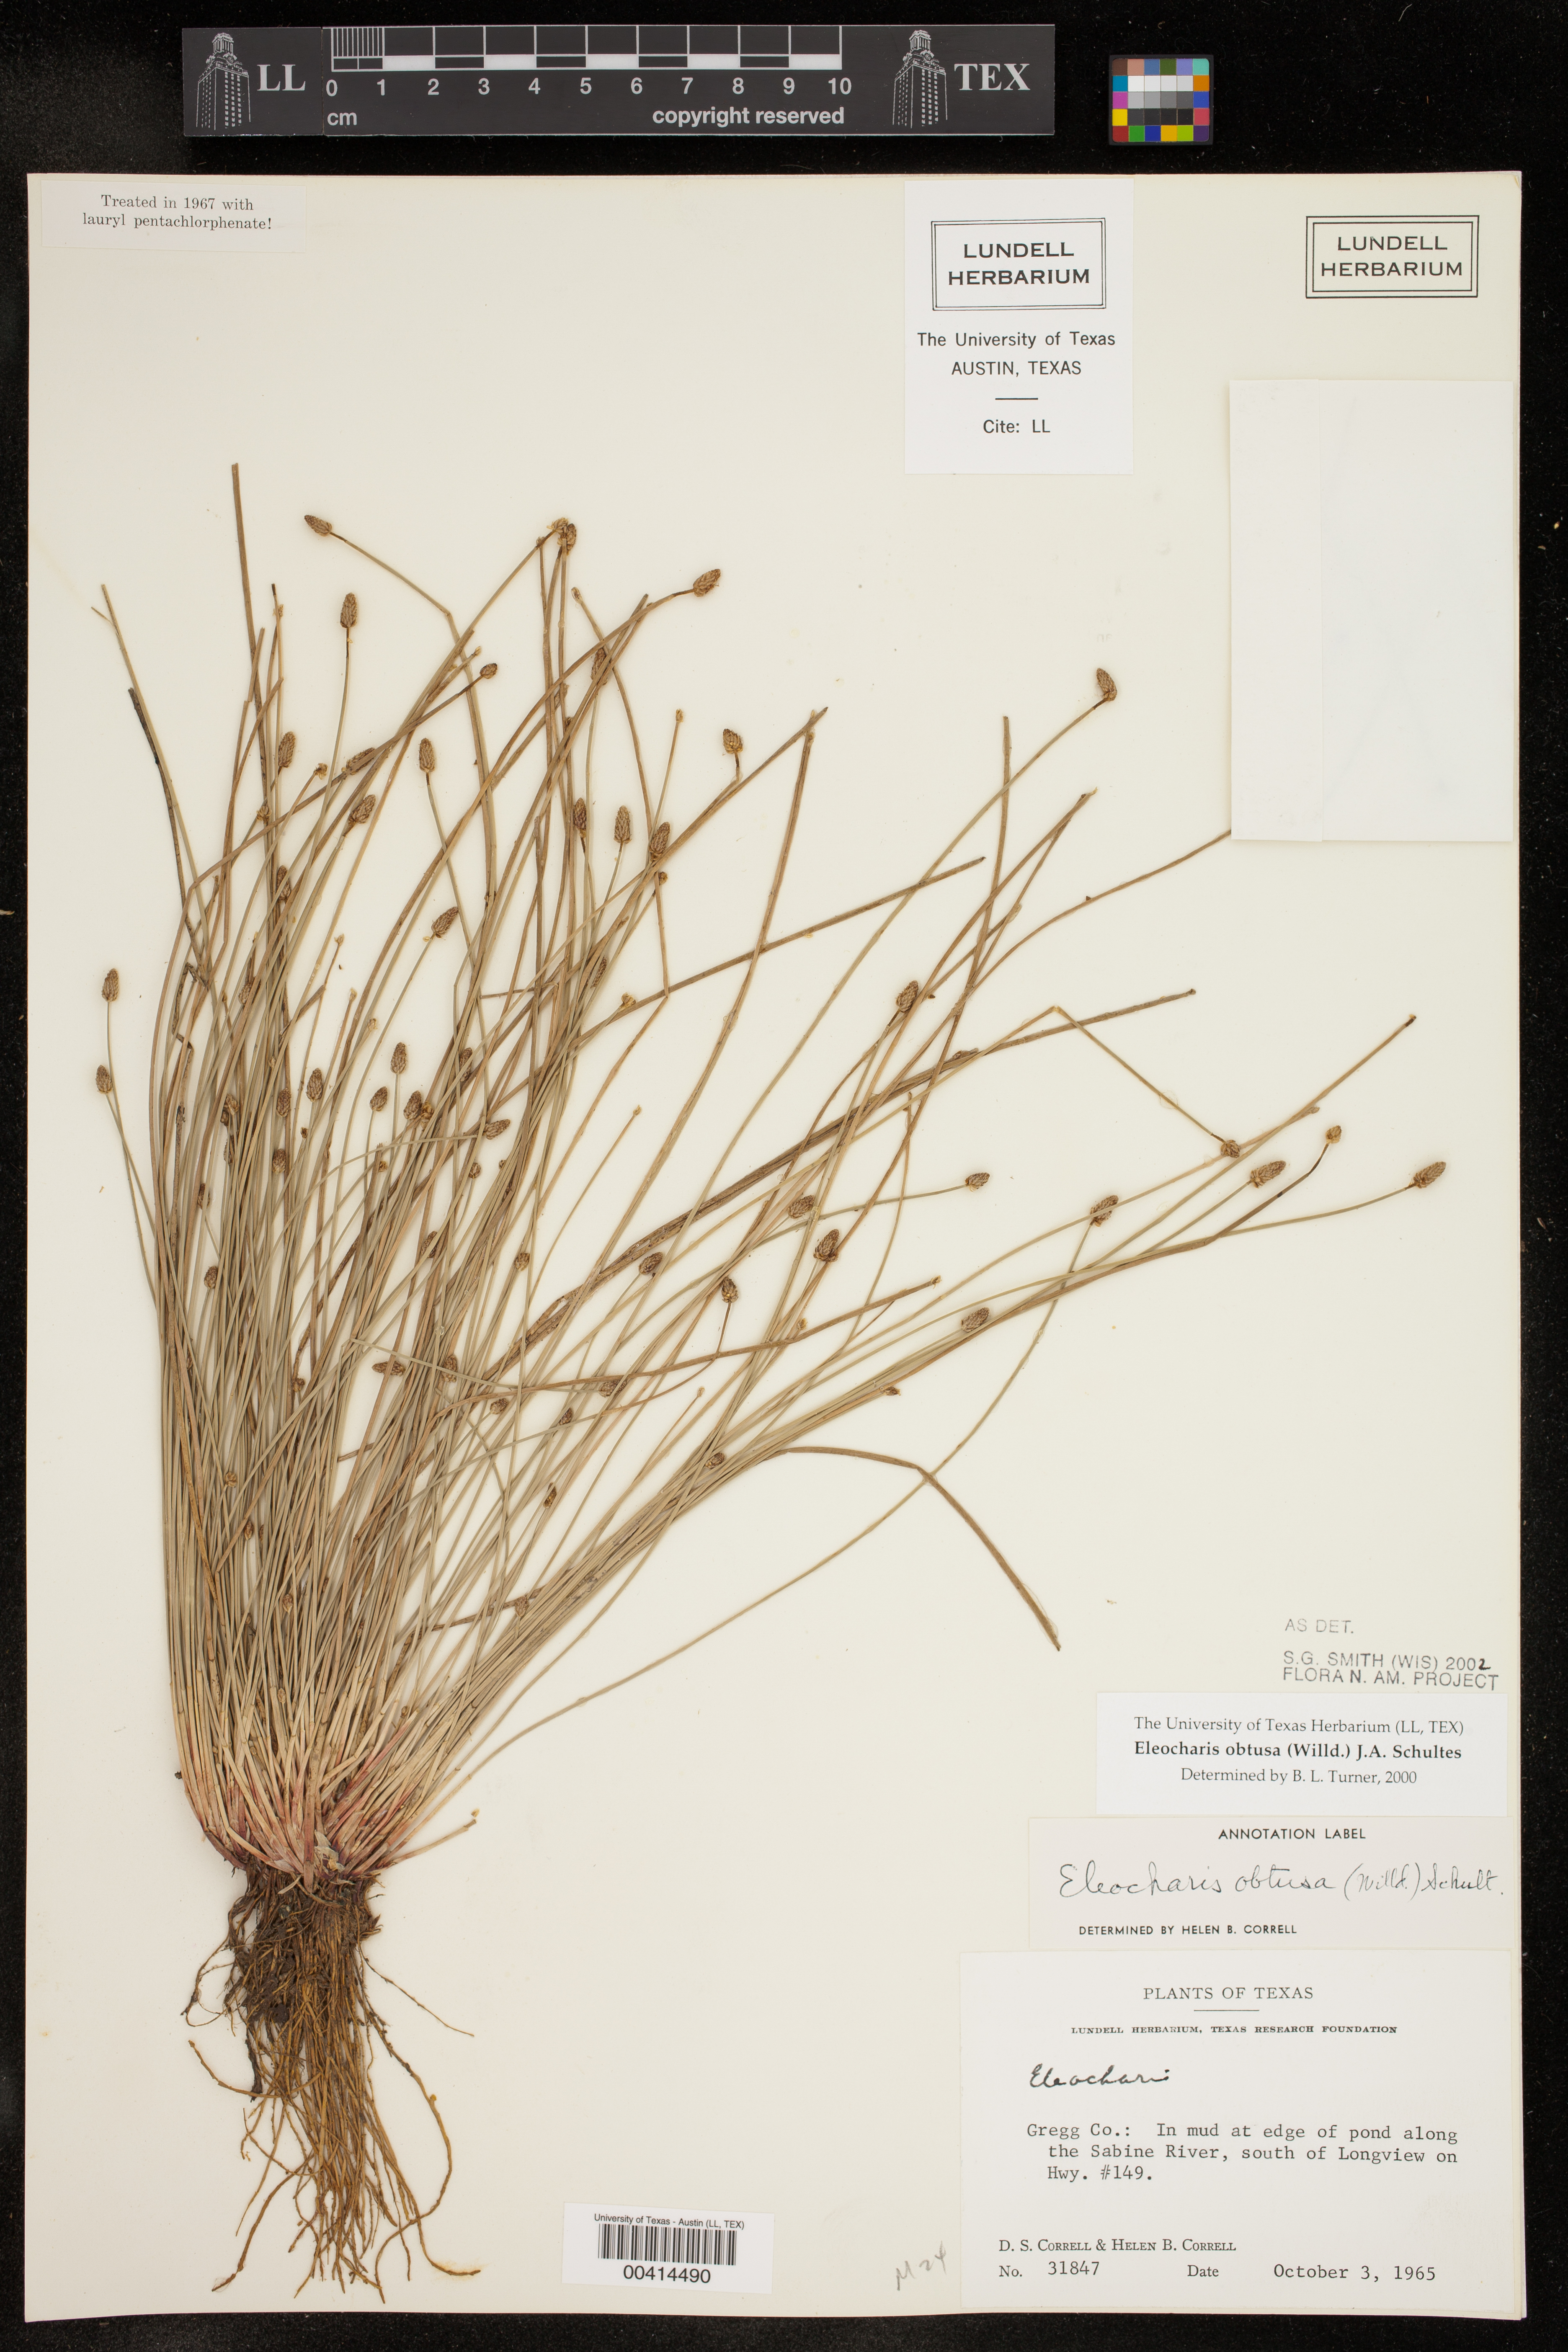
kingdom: Plantae
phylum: Tracheophyta
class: Liliopsida
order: Poales
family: Cyperaceae
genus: Eleocharis
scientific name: Eleocharis obtusa
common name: Blunt spikerush
